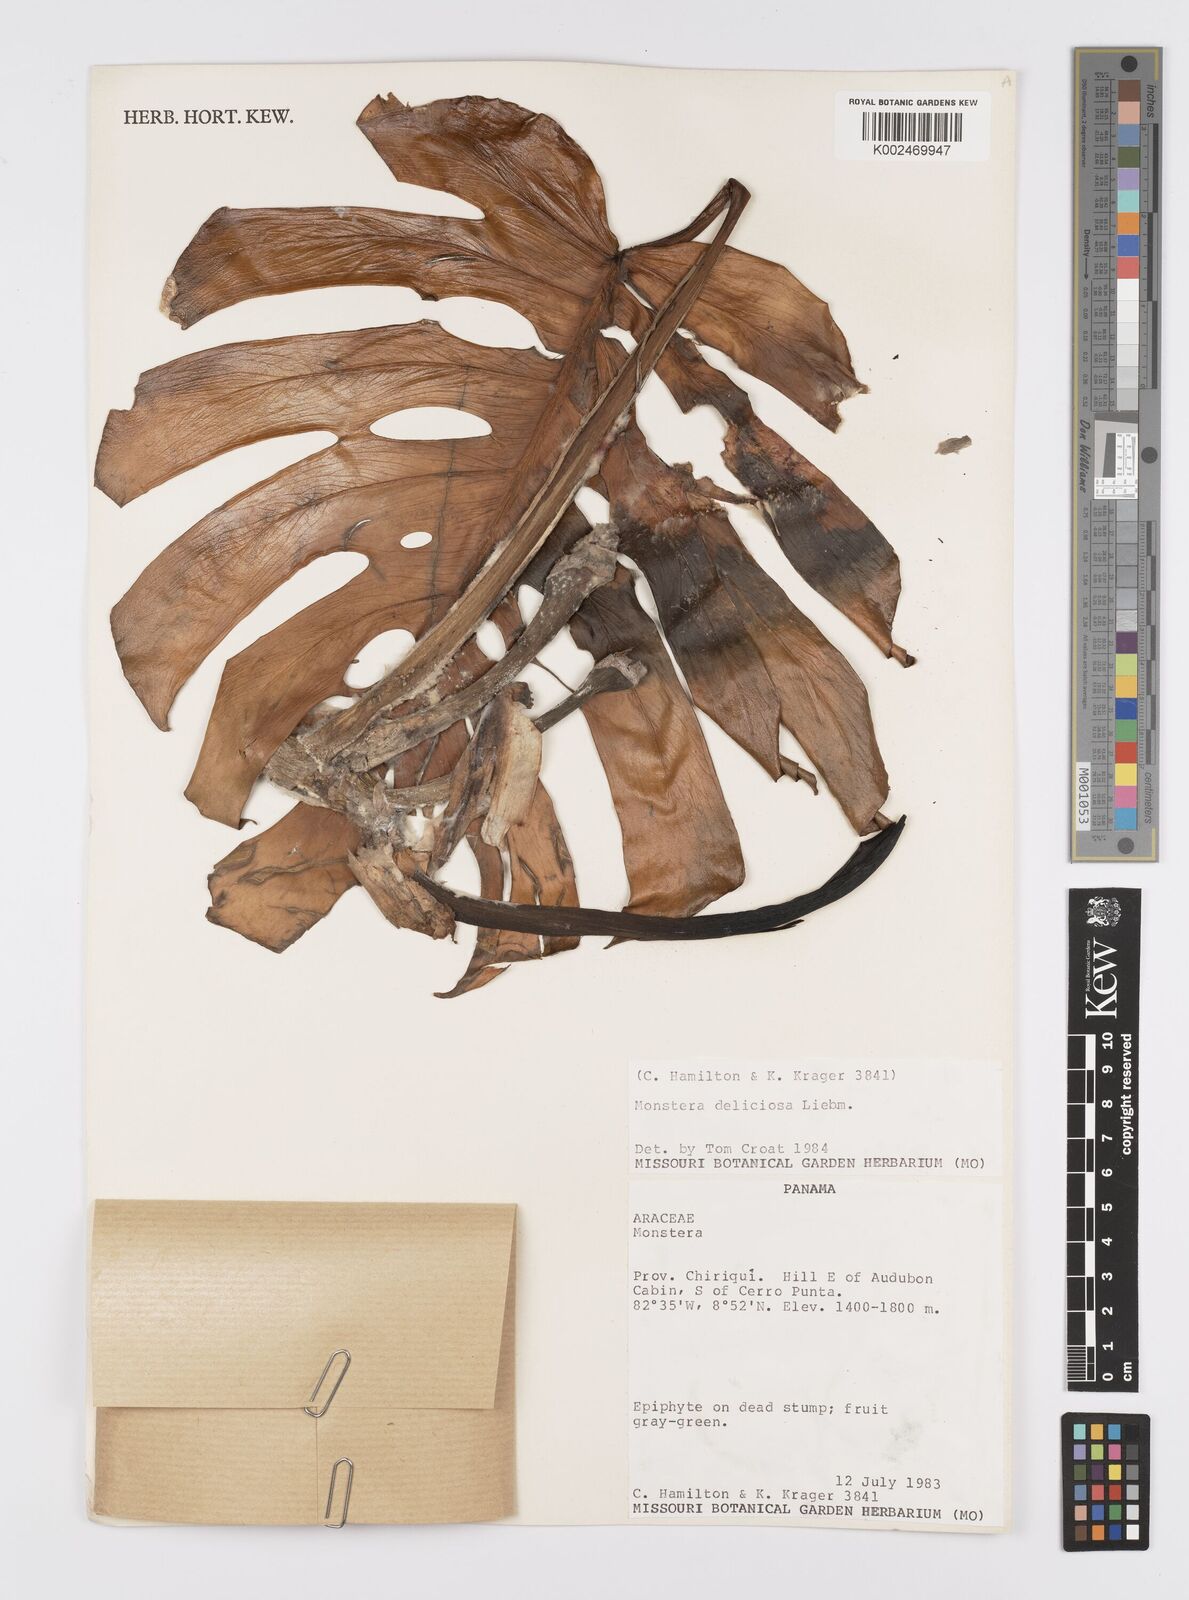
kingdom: Plantae
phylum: Tracheophyta
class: Liliopsida
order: Alismatales
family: Araceae
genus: Monstera
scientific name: Monstera deliciosa
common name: Cut-leaf-philodendron
